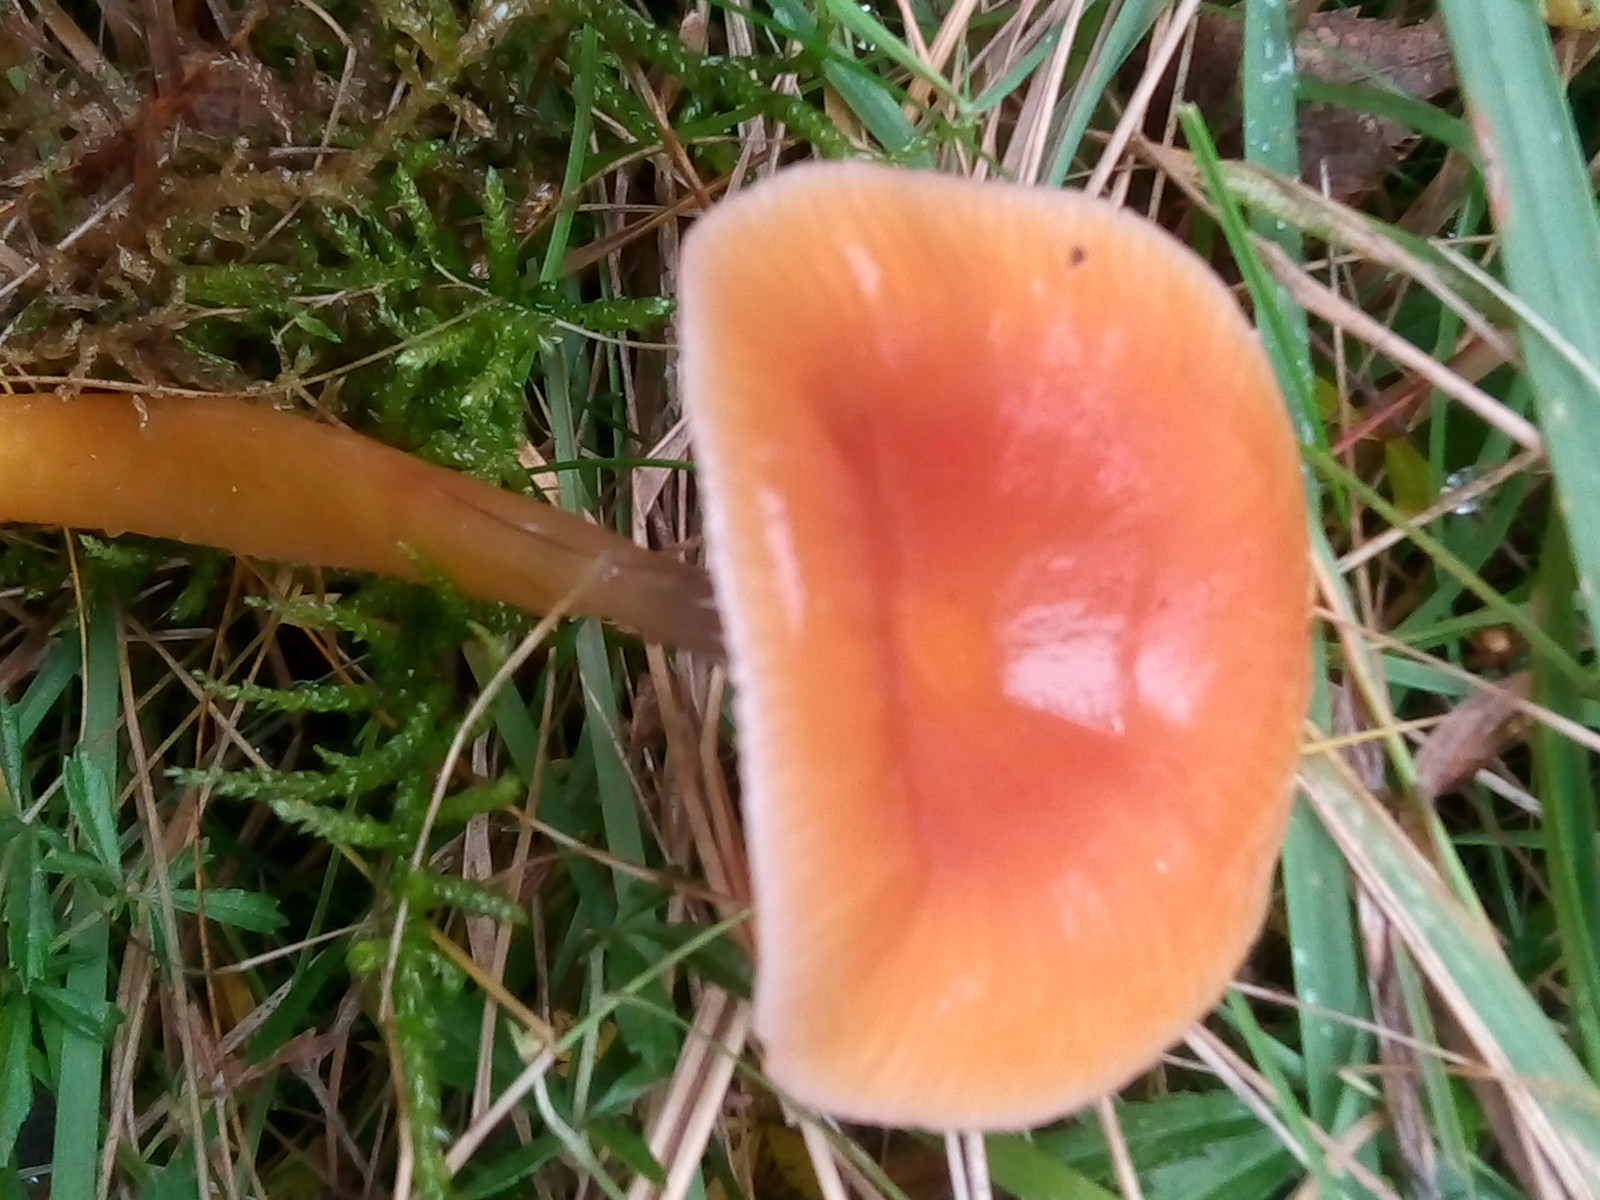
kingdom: Fungi
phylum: Basidiomycota
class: Agaricomycetes
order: Agaricales
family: Hygrophoraceae
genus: Gliophorus
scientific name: Gliophorus laetus
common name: brusk-vokshat
